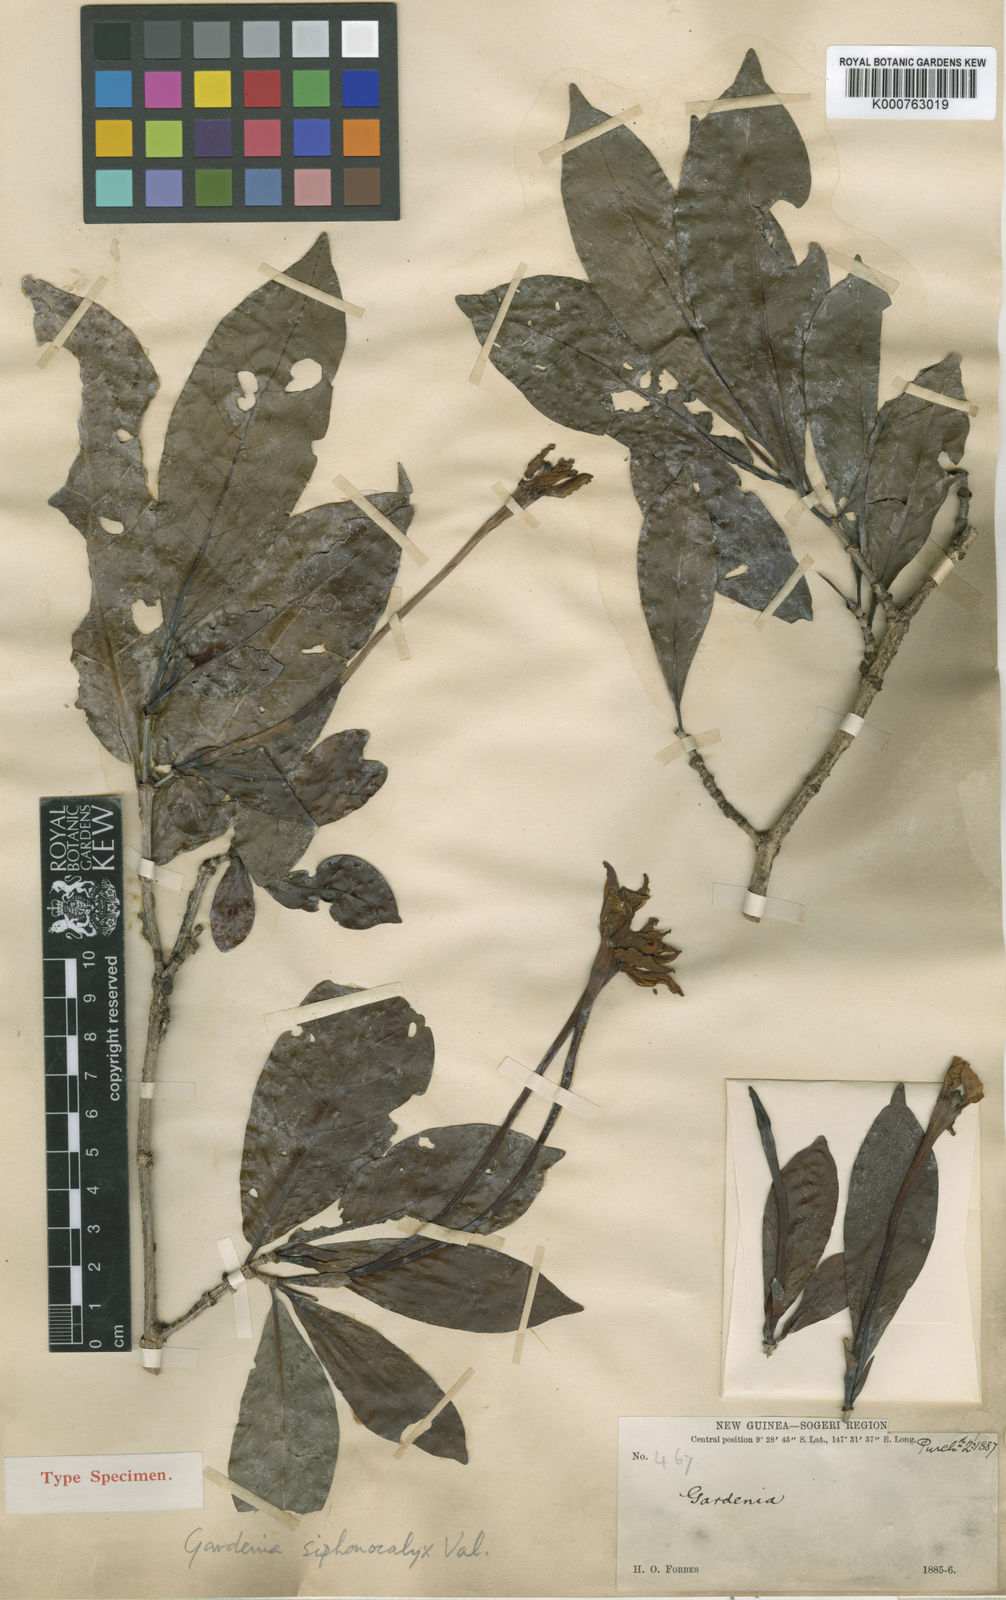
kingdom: Plantae
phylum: Tracheophyta
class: Magnoliopsida
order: Gentianales
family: Rubiaceae
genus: Gardenia
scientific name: Gardenia siphonocalyx
